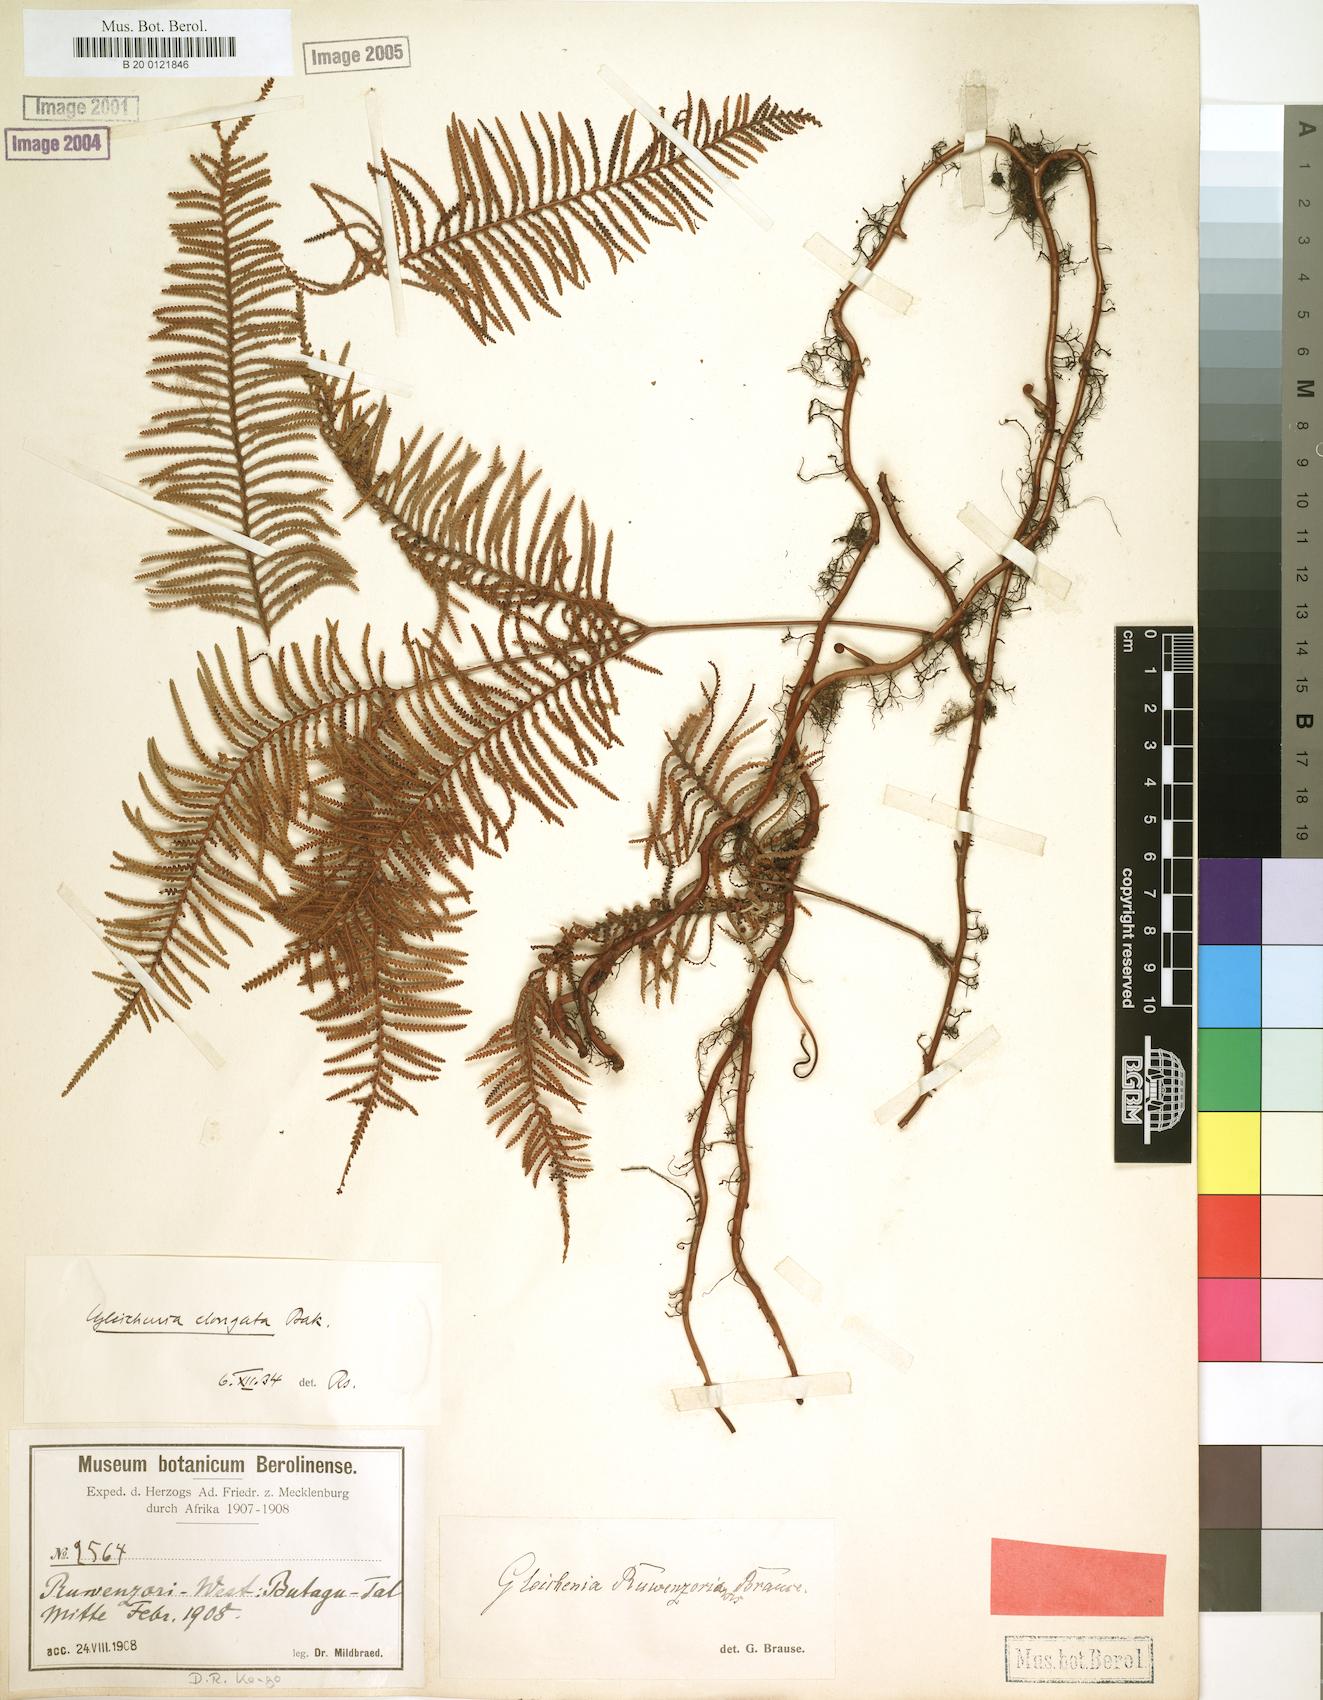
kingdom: Plantae
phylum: Tracheophyta
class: Polypodiopsida
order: Gleicheniales
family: Gleicheniaceae
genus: Gleichenia
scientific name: Gleichenia elongata
